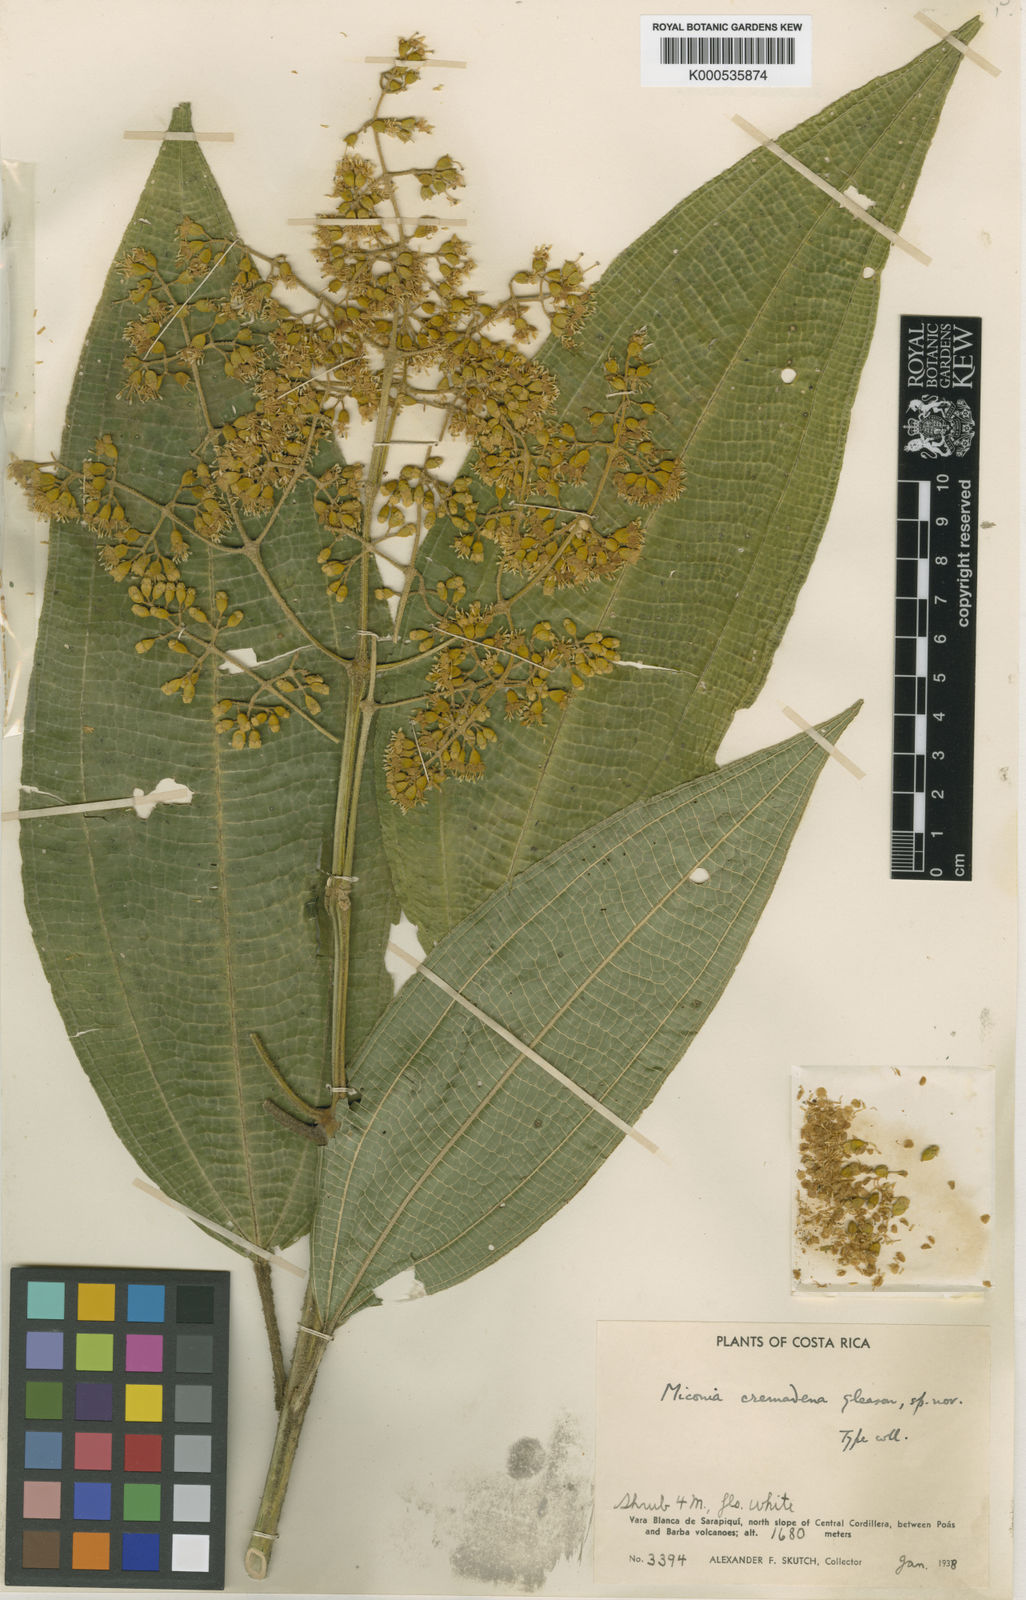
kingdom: Plantae
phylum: Tracheophyta
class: Magnoliopsida
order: Myrtales
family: Melastomataceae
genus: Miconia
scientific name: Miconia cremadena
